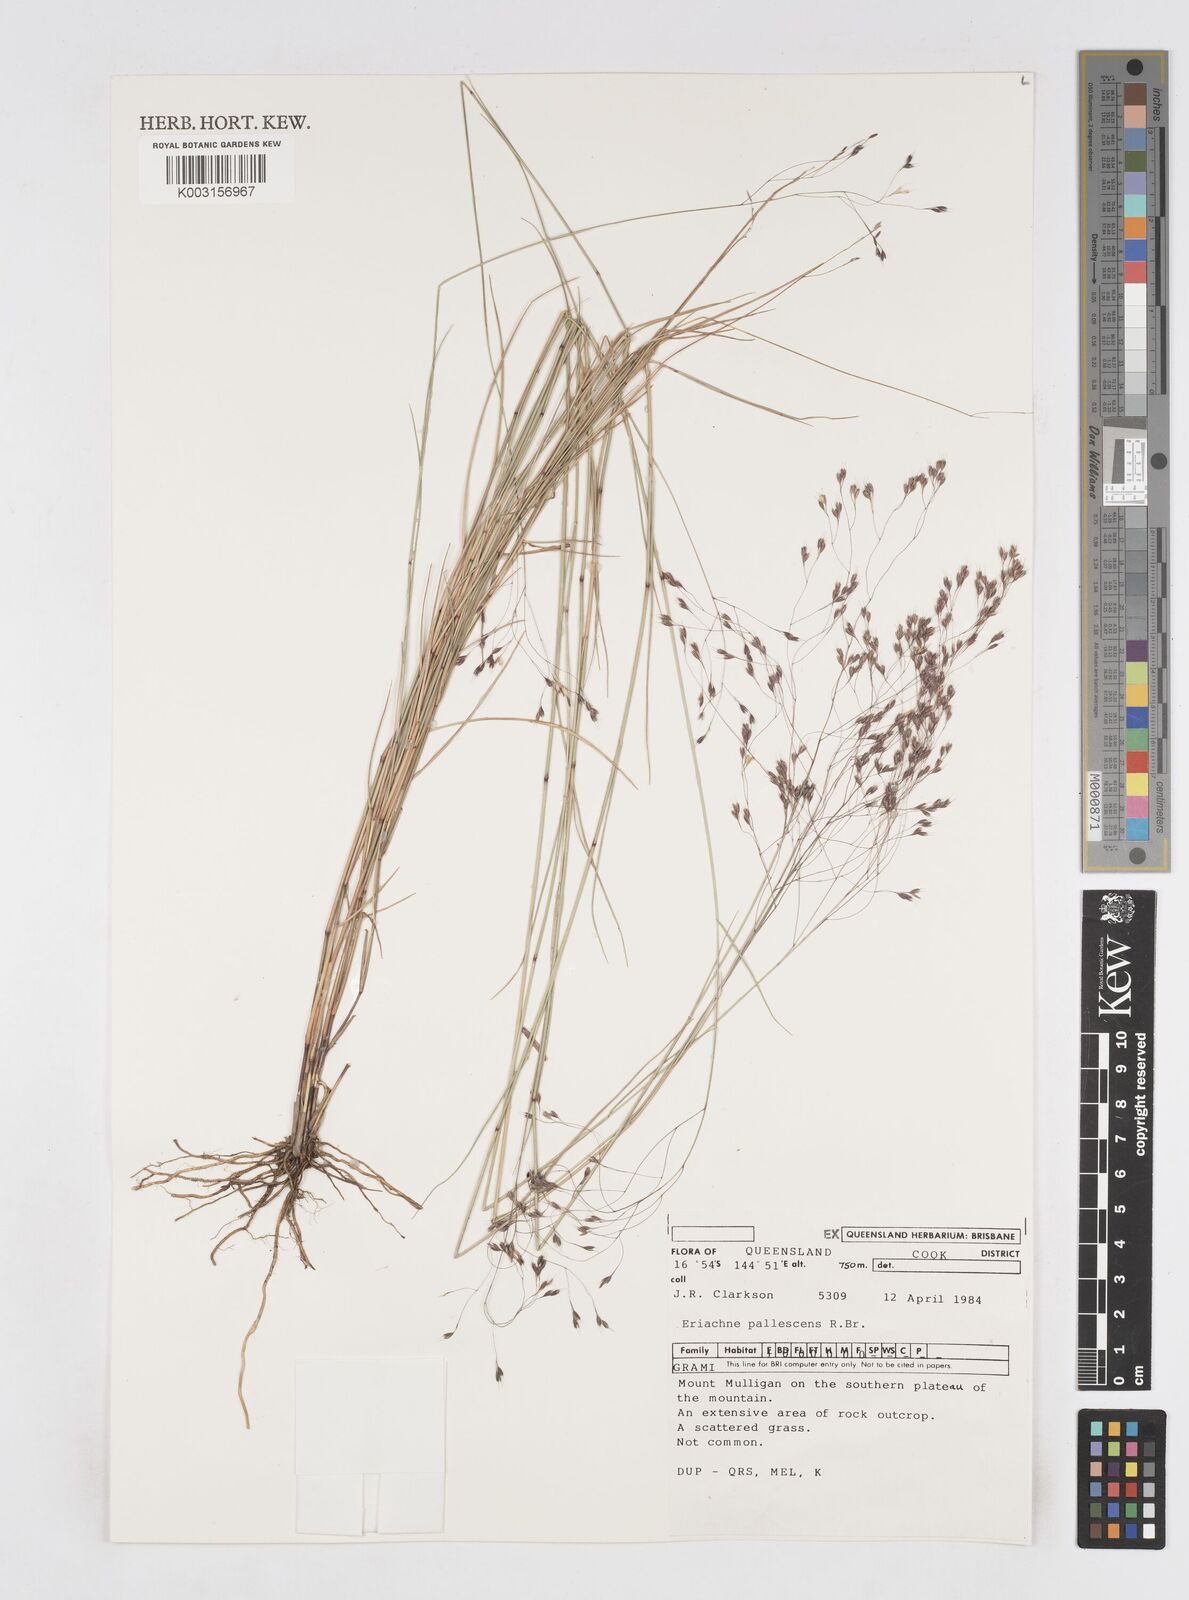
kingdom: Plantae
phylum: Tracheophyta
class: Liliopsida
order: Poales
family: Poaceae
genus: Eriachne
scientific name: Eriachne pallescens
